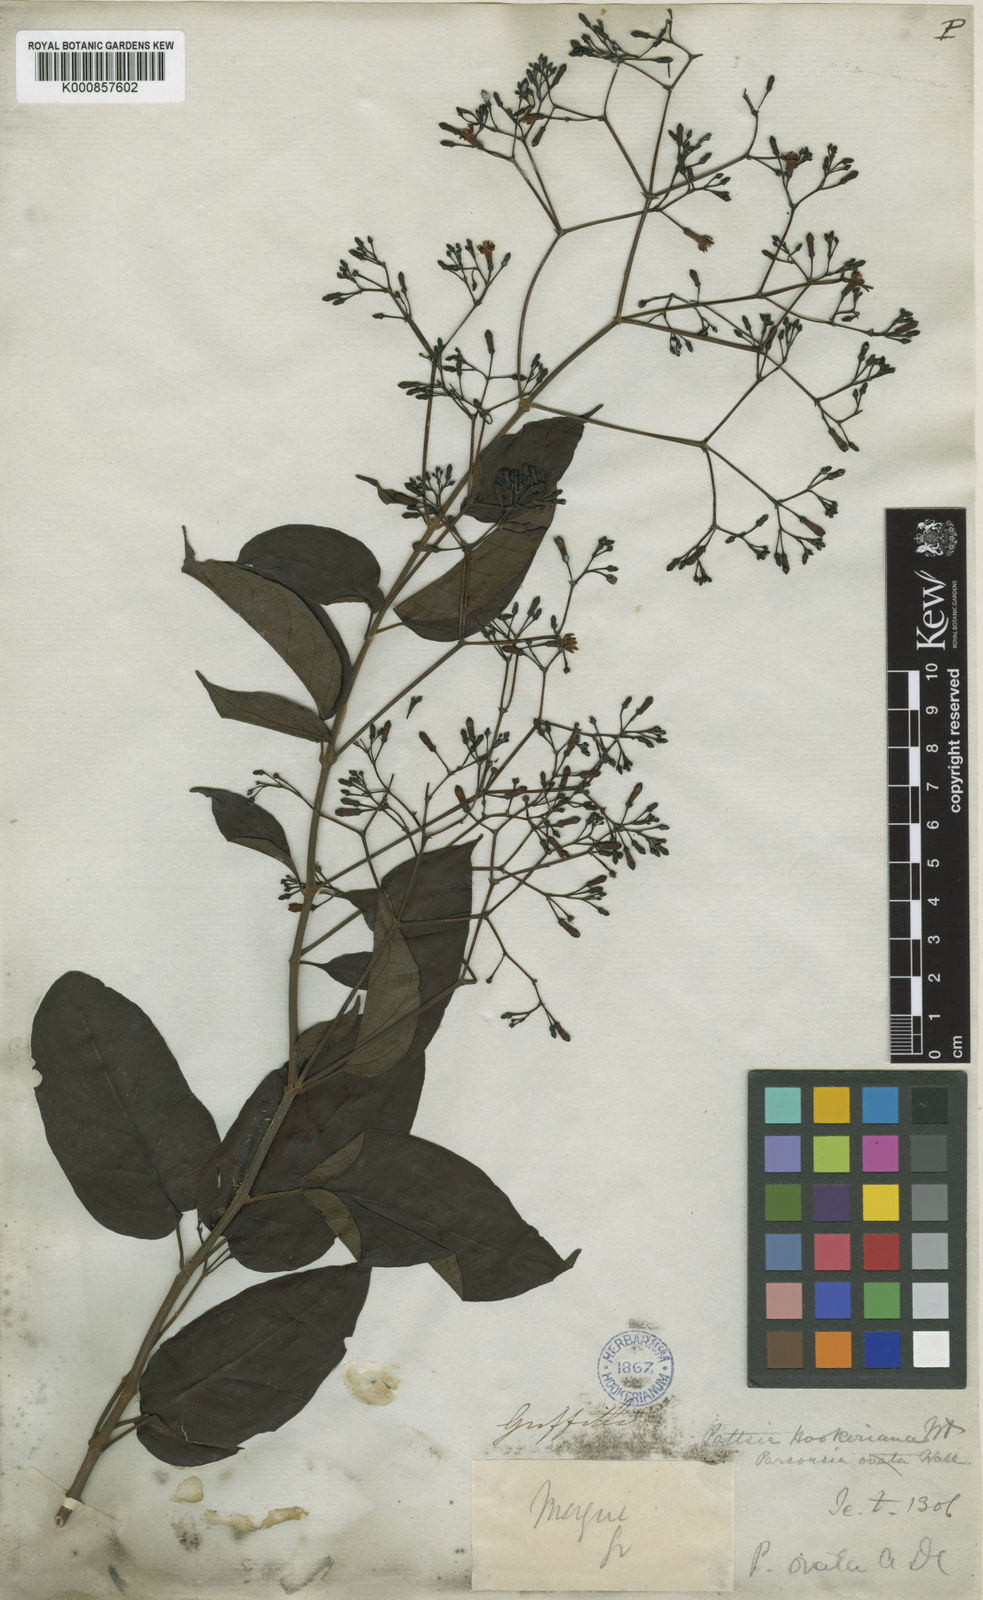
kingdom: Plantae
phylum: Tracheophyta
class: Magnoliopsida
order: Gentianales
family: Apocynaceae
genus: Pottsia
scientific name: Pottsia laxiflora
